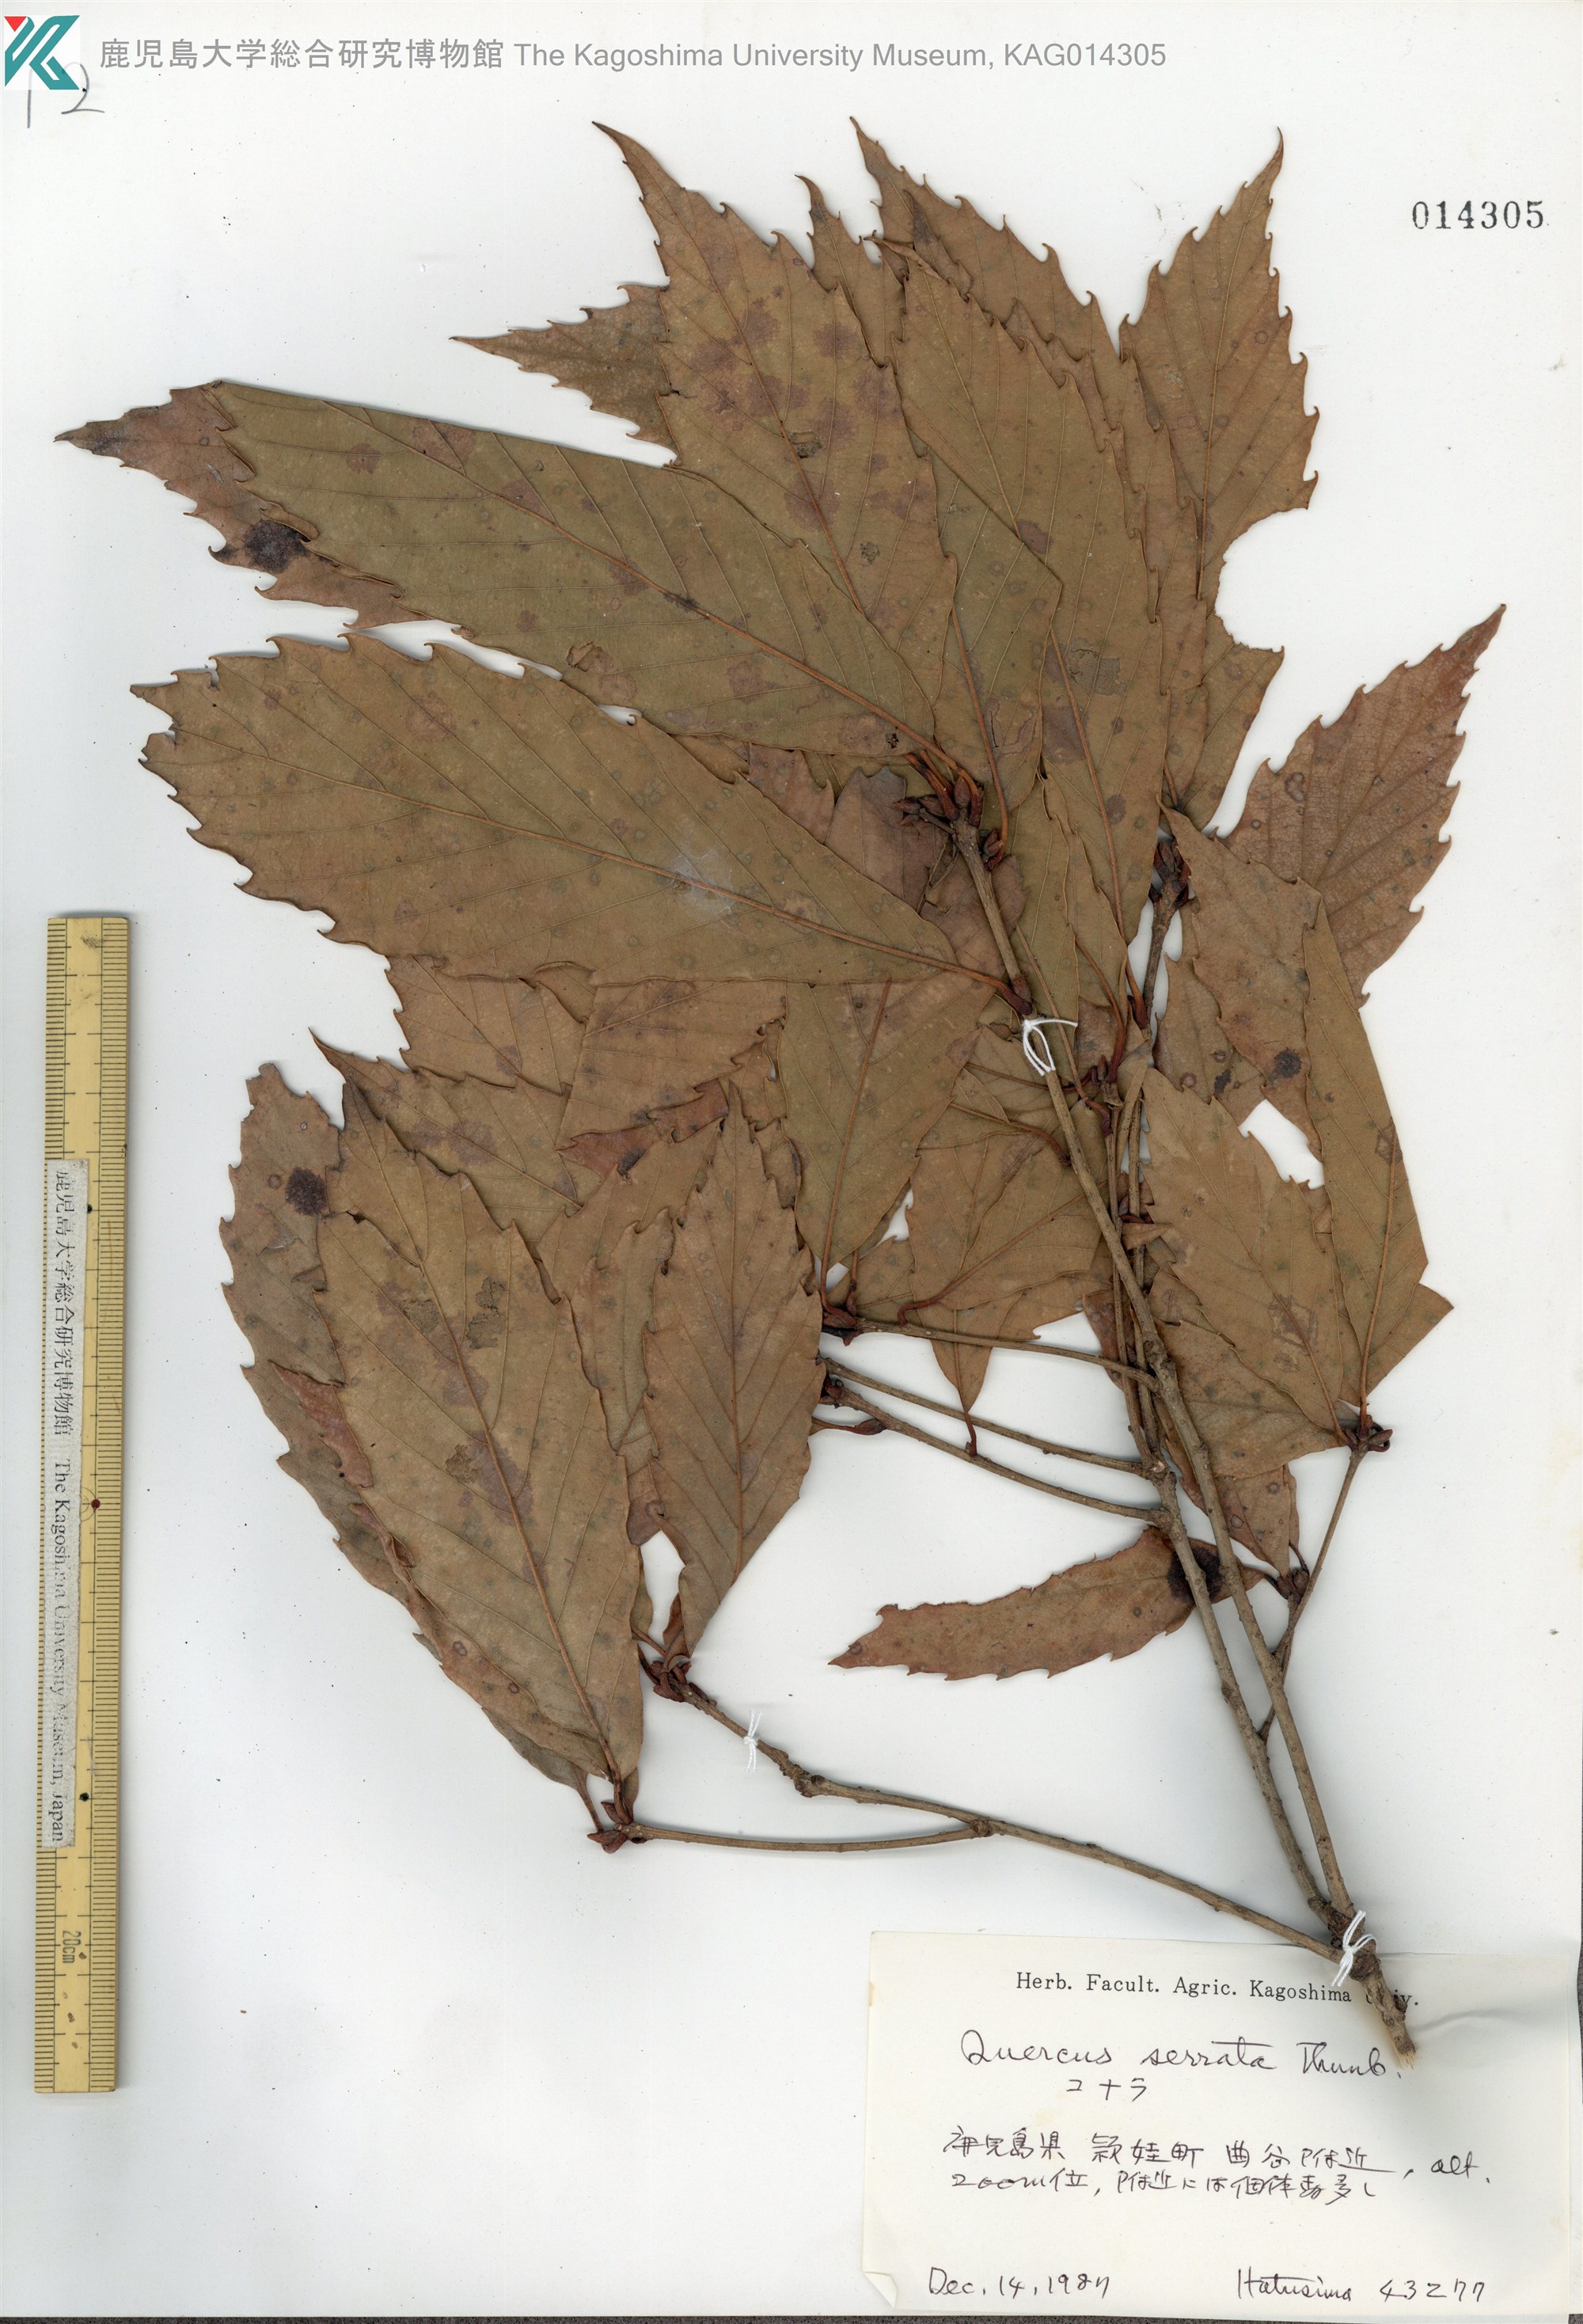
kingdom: Plantae
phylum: Tracheophyta
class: Magnoliopsida
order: Fagales
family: Fagaceae
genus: Quercus
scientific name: Quercus serrata
